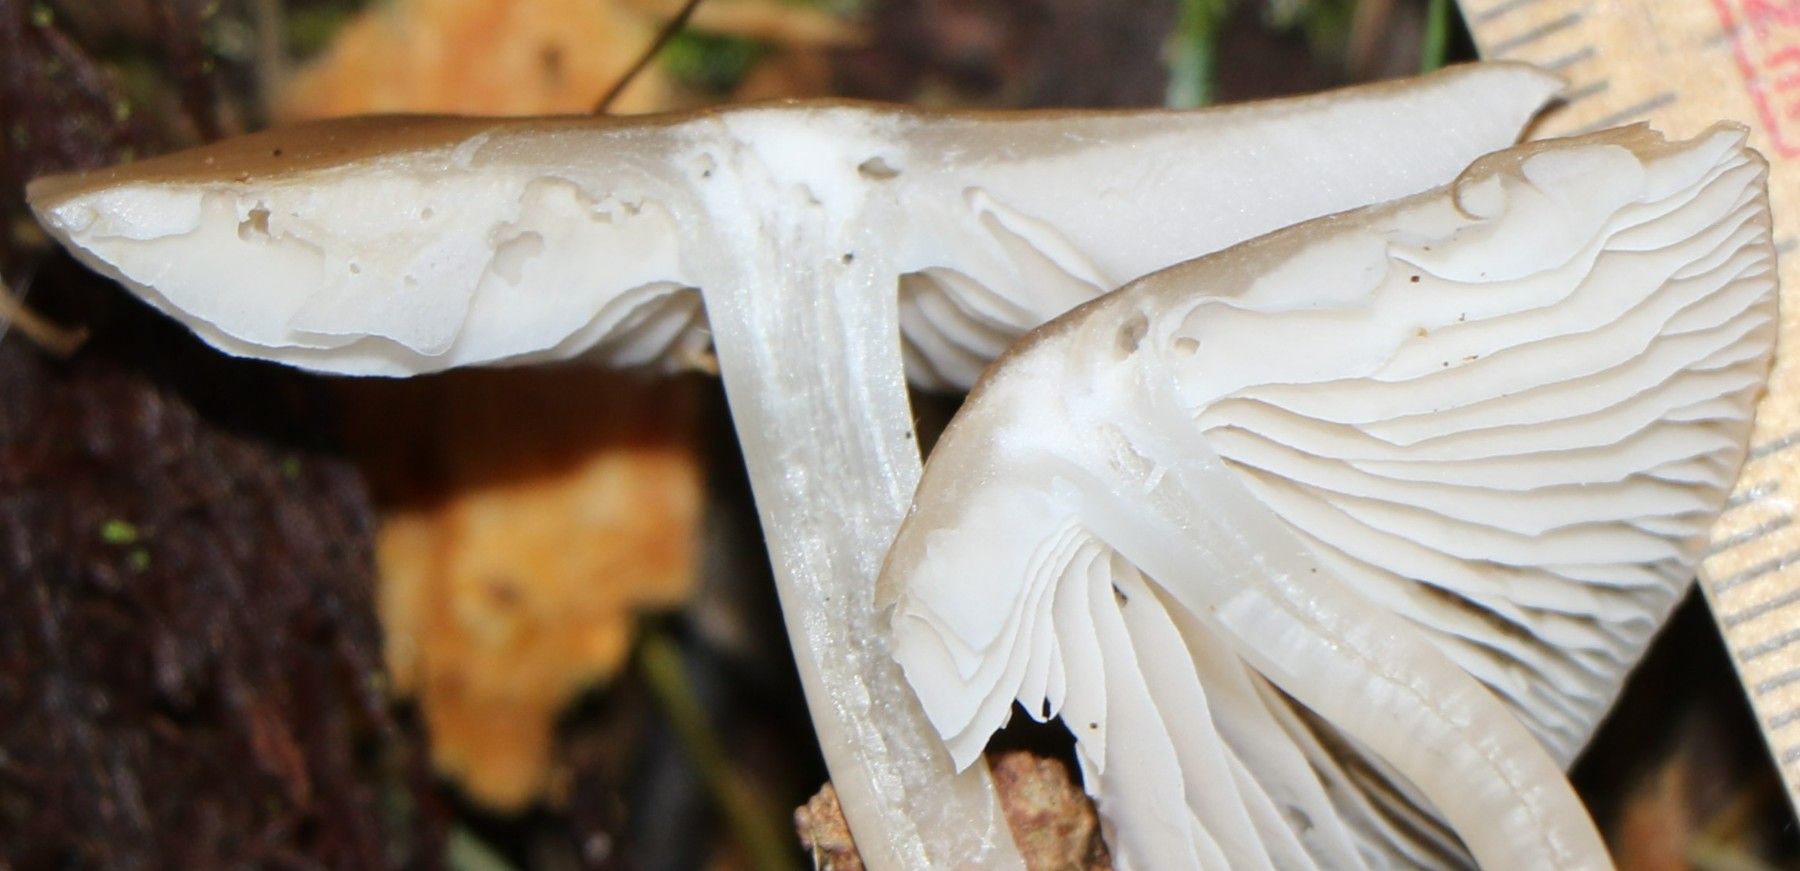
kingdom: Fungi
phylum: Basidiomycota
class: Agaricomycetes
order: Agaricales
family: Mycenaceae
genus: Mycena
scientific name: Mycena galericulata
